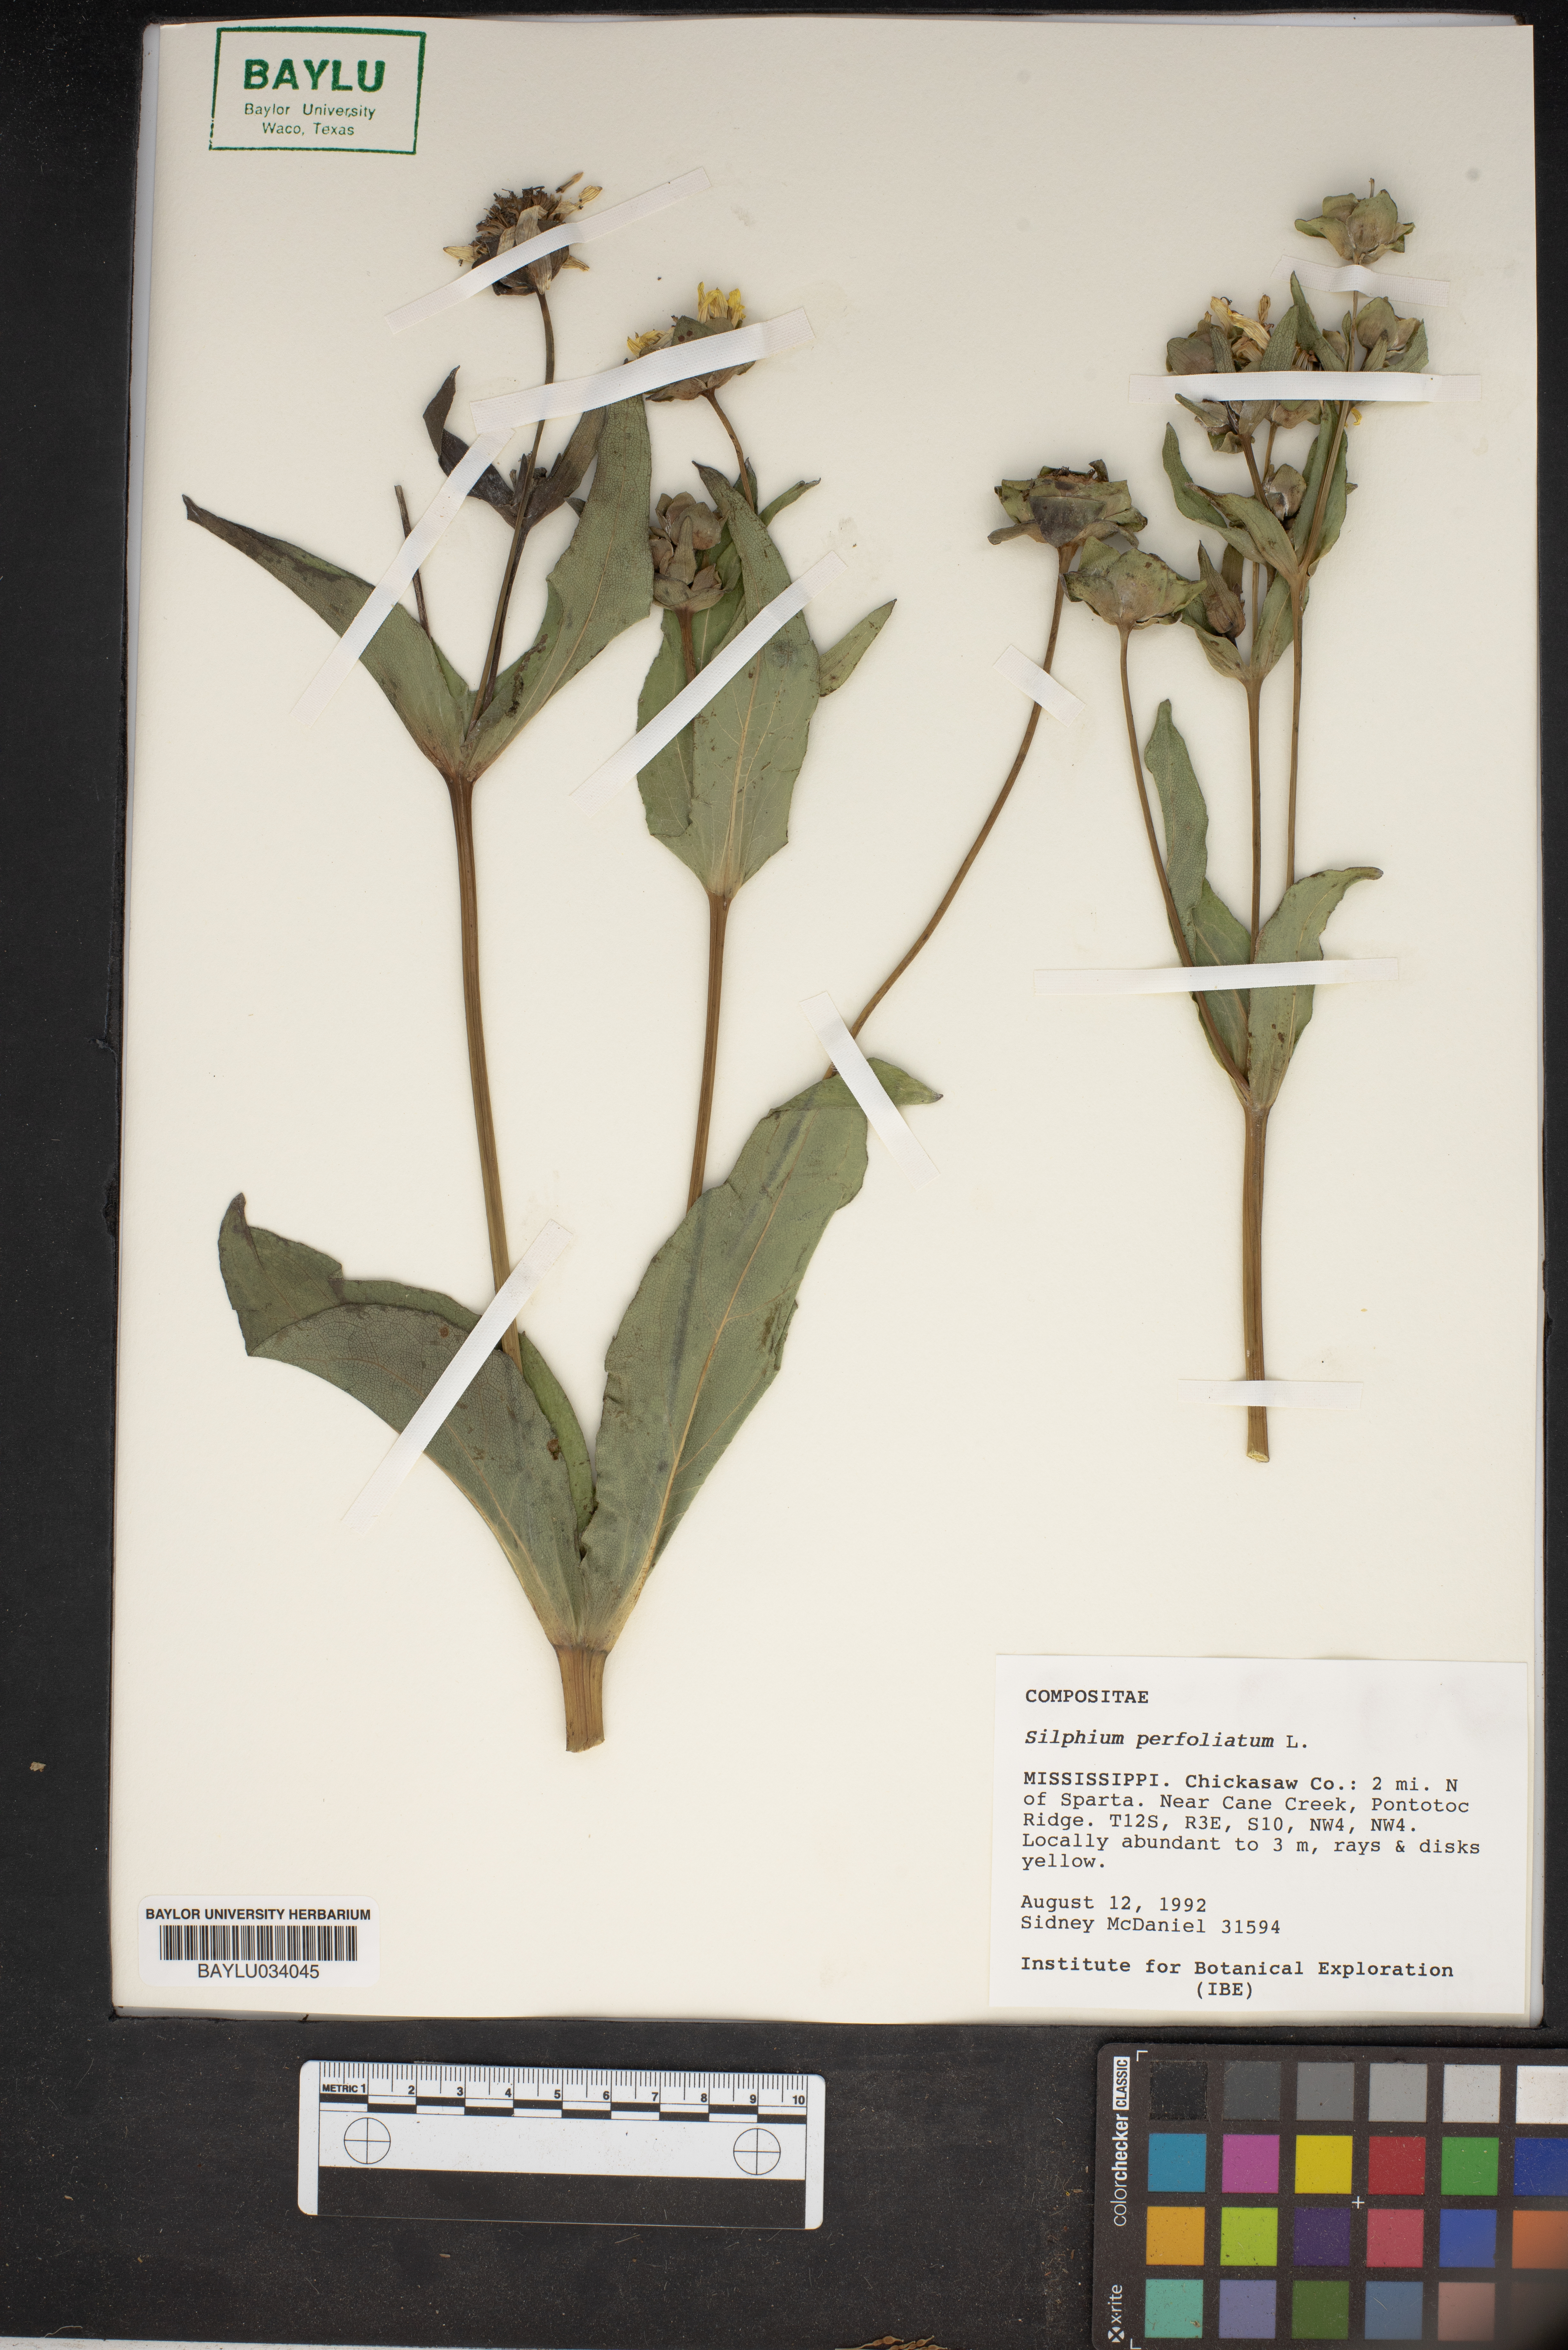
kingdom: Plantae
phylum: Tracheophyta
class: Magnoliopsida
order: Asterales
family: Asteraceae
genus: Silphium
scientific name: Silphium perfoliatum
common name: Cup-plant
